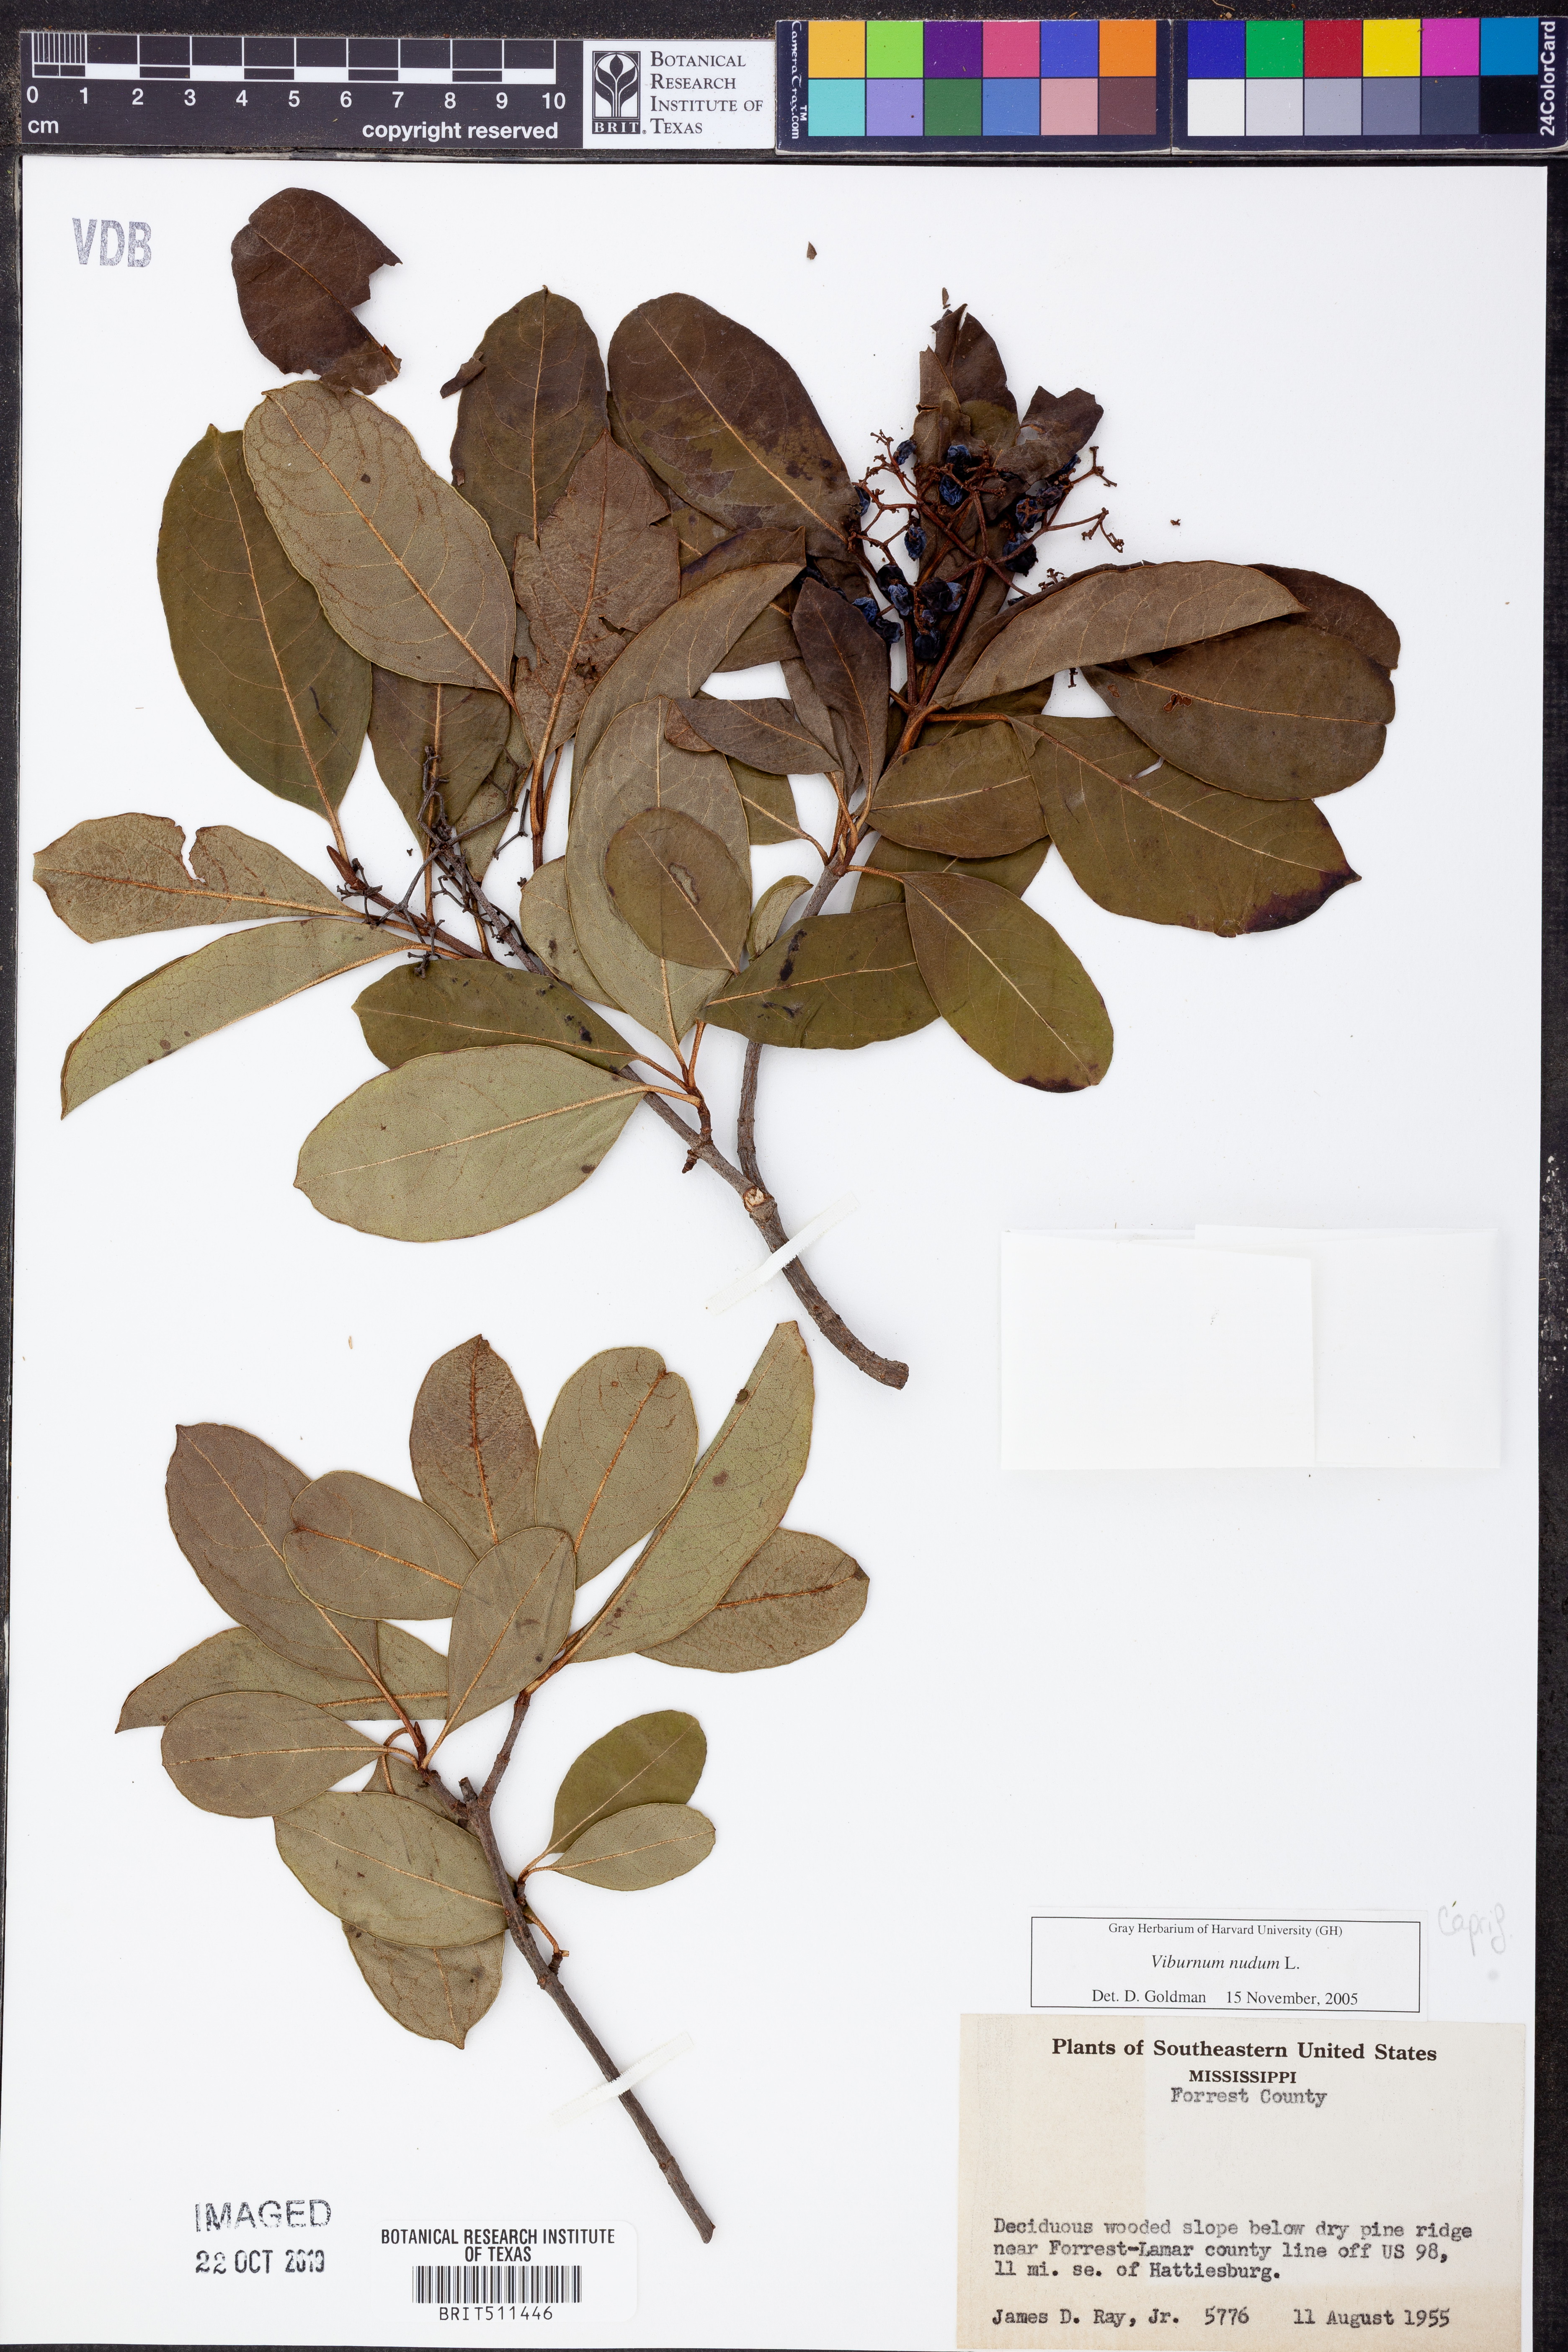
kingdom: Plantae
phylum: Tracheophyta
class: Magnoliopsida
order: Dipsacales
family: Viburnaceae
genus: Viburnum
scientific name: Viburnum nudum
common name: Possum haw
